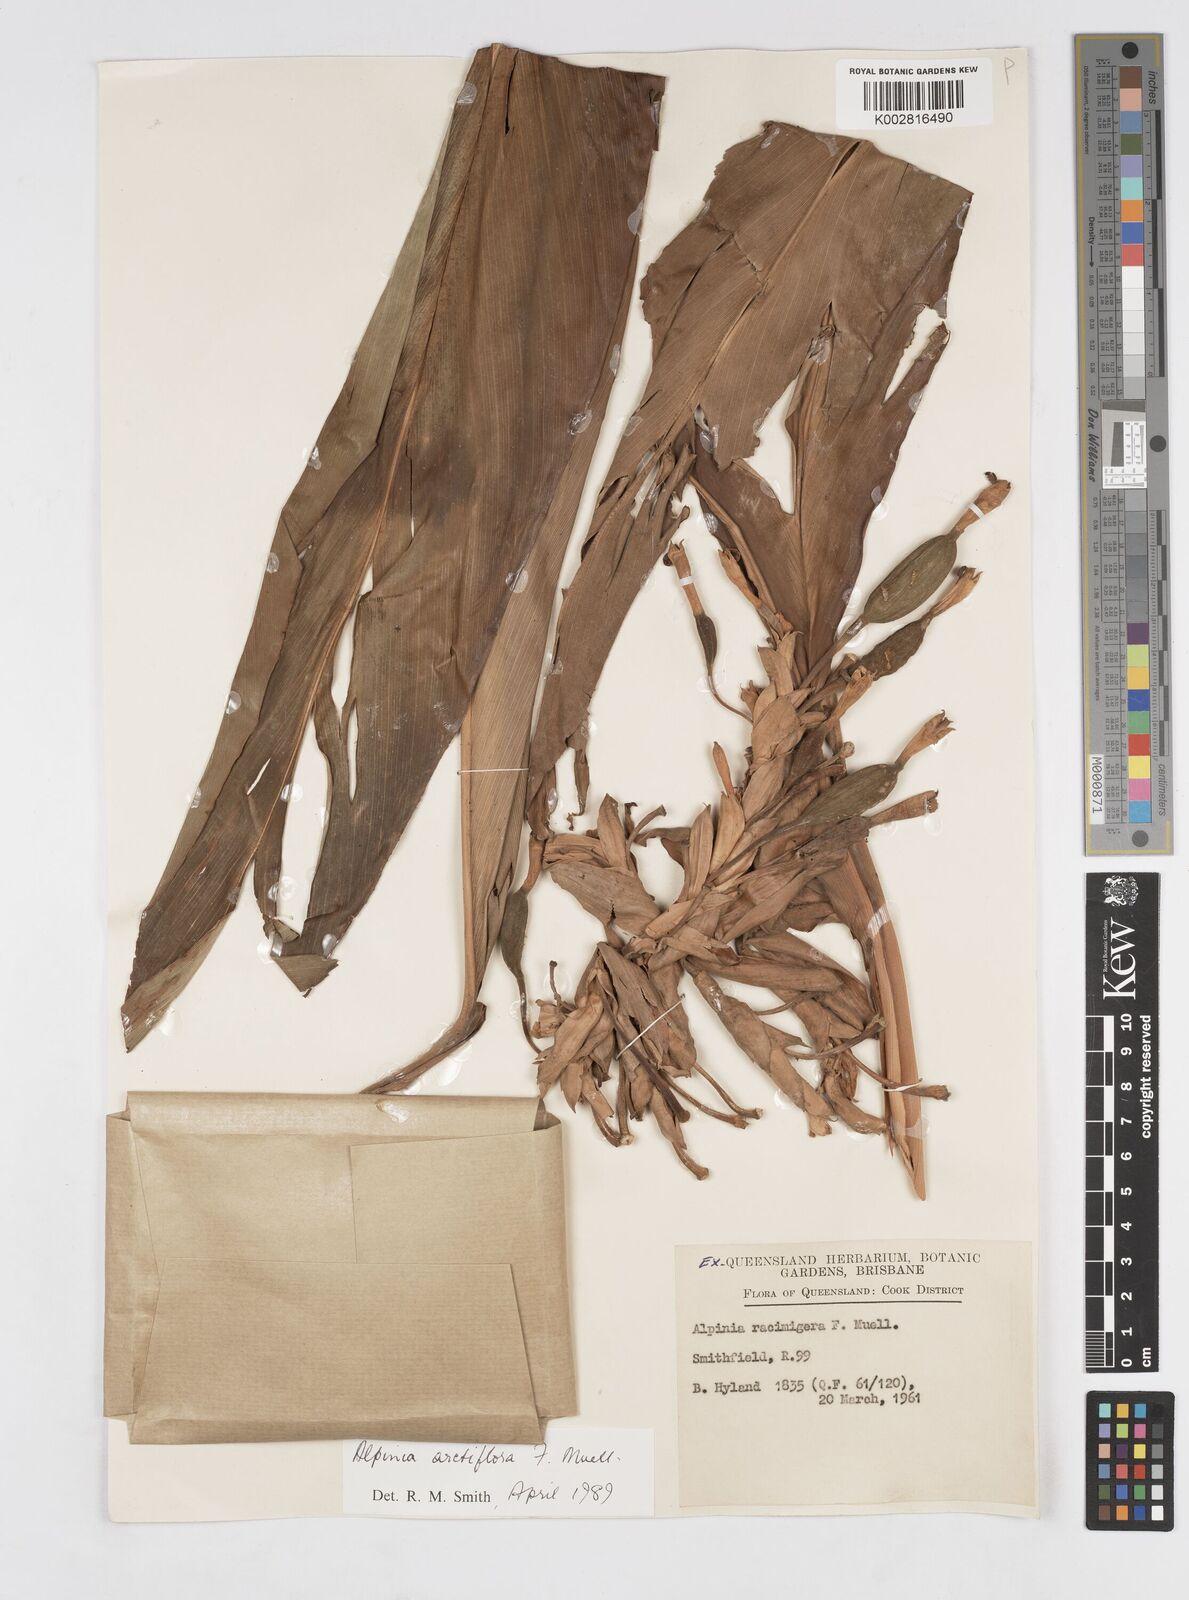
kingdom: Plantae
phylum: Tracheophyta
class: Liliopsida
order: Zingiberales
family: Zingiberaceae
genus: Alpinia
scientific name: Alpinia arctiflora
